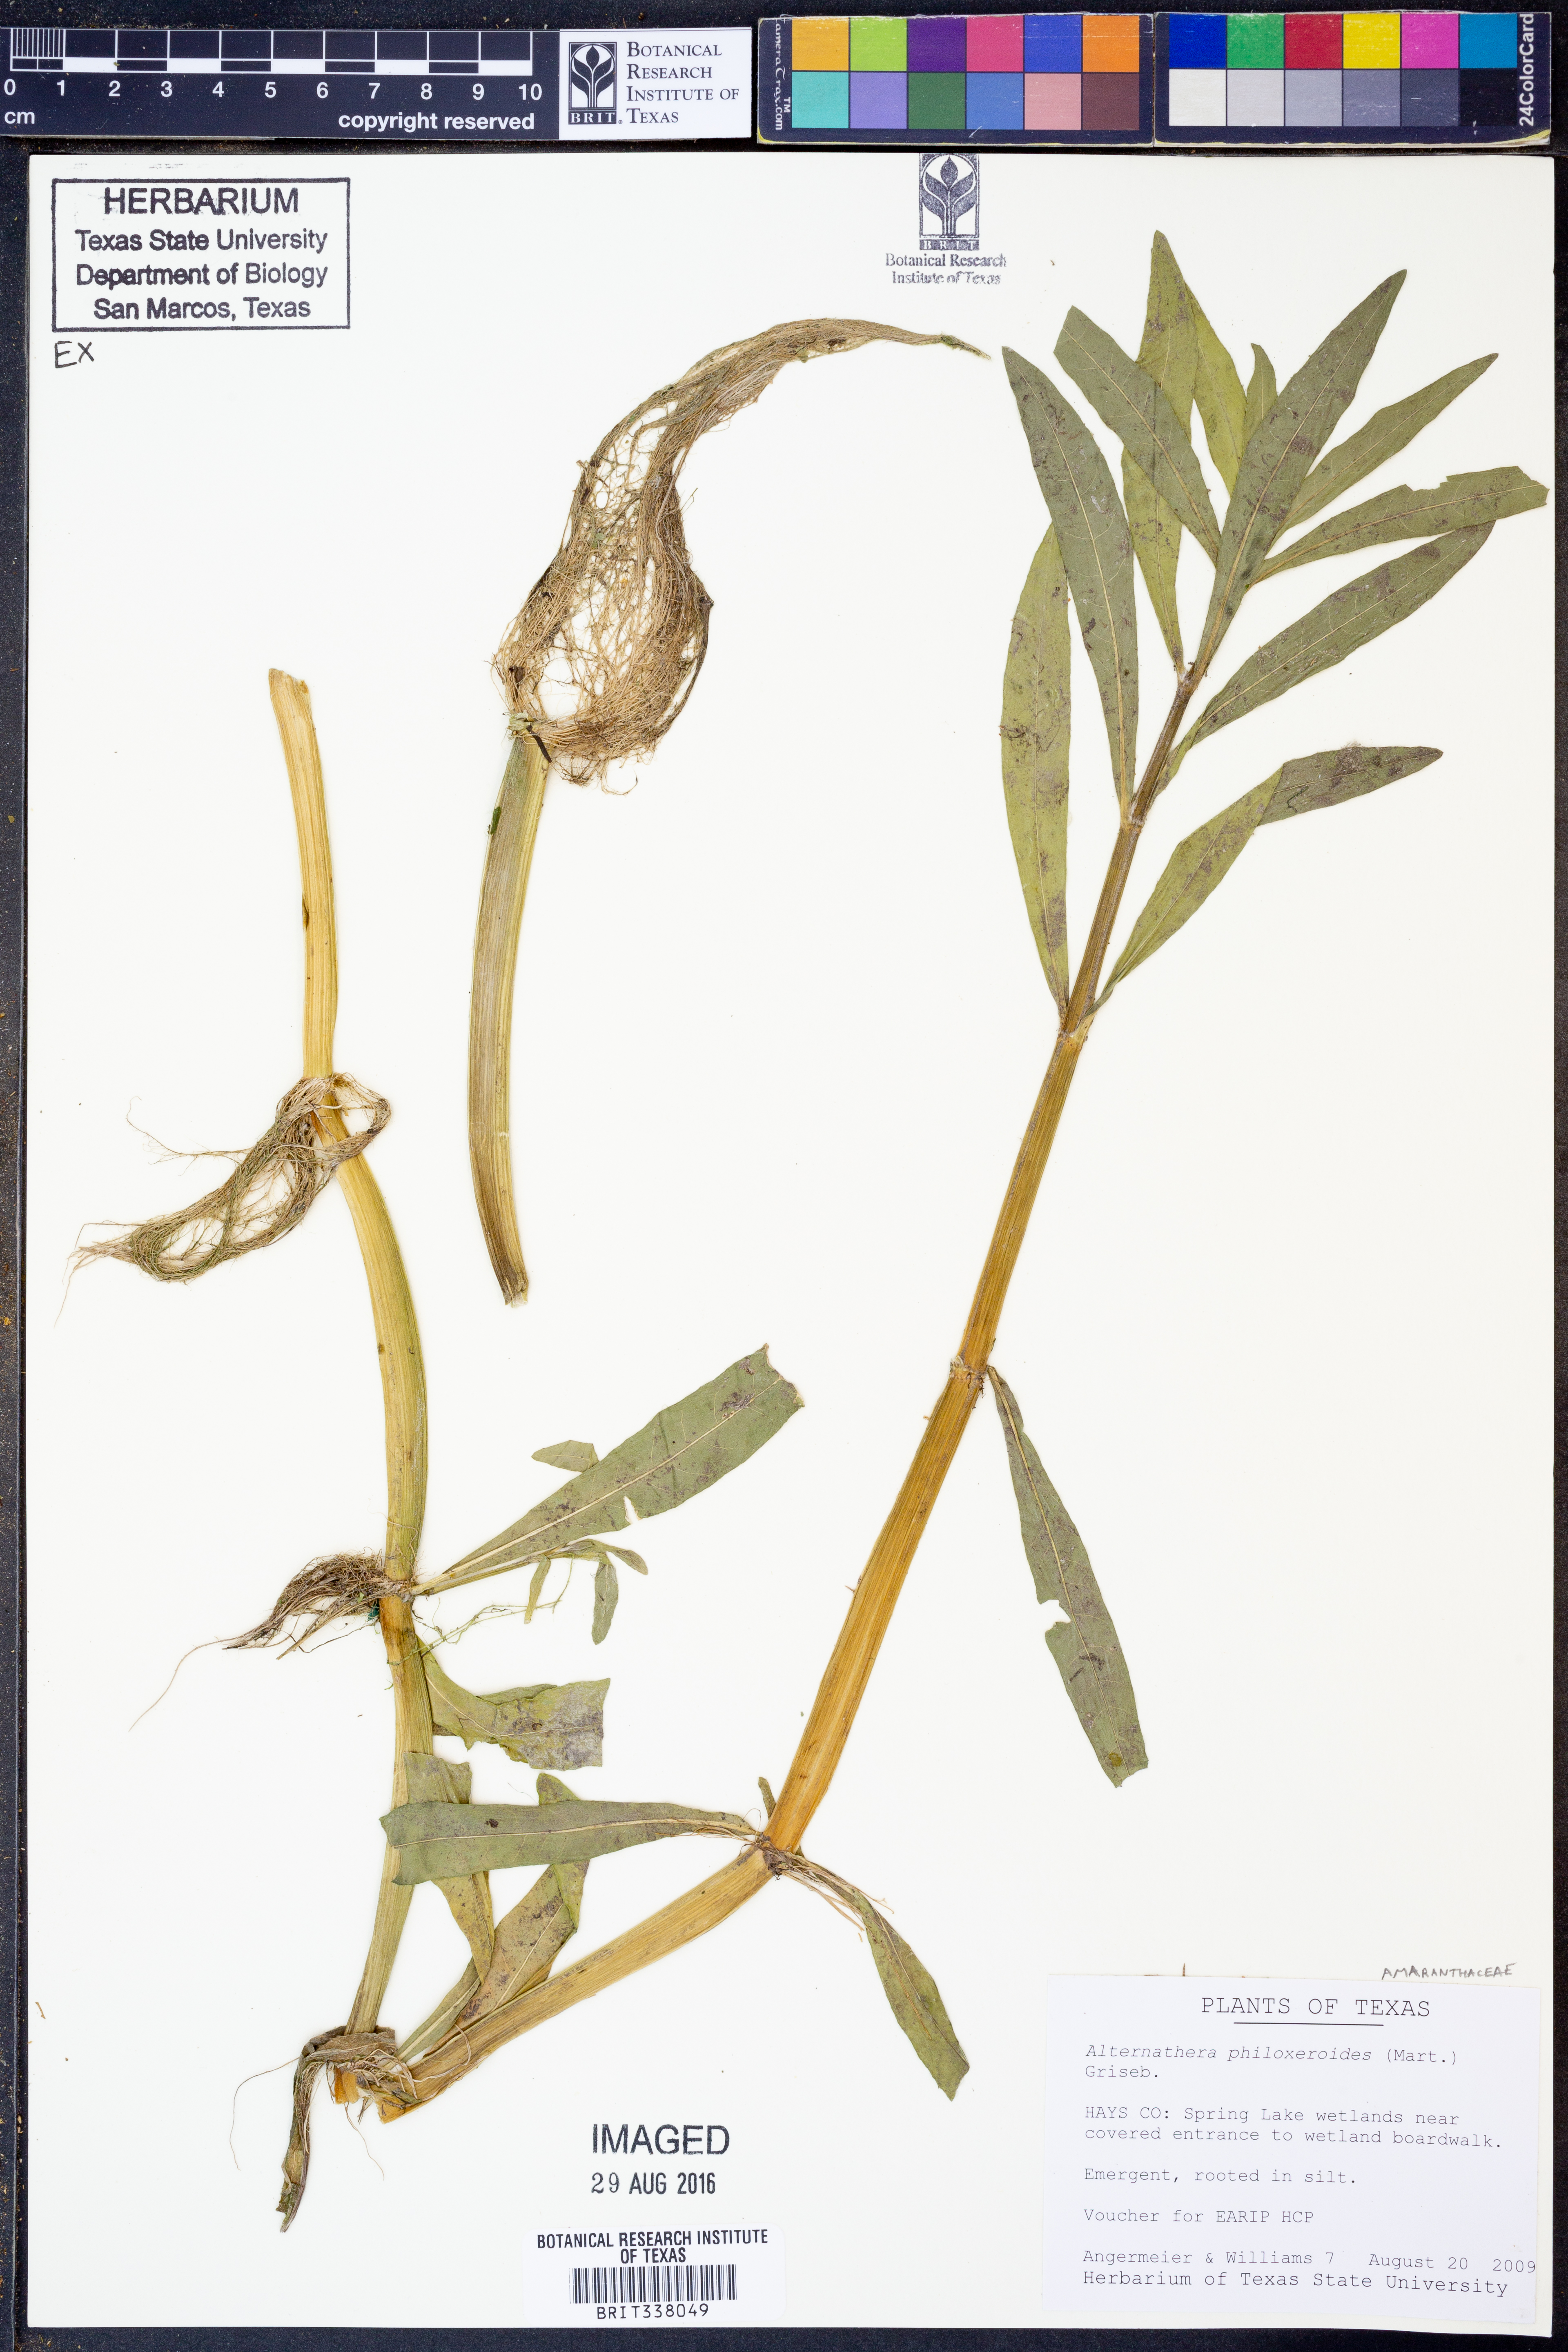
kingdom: Plantae
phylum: Tracheophyta
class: Magnoliopsida
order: Caryophyllales
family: Amaranthaceae
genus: Alternanthera
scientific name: Alternanthera philoxeroides
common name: Alligatorweed
